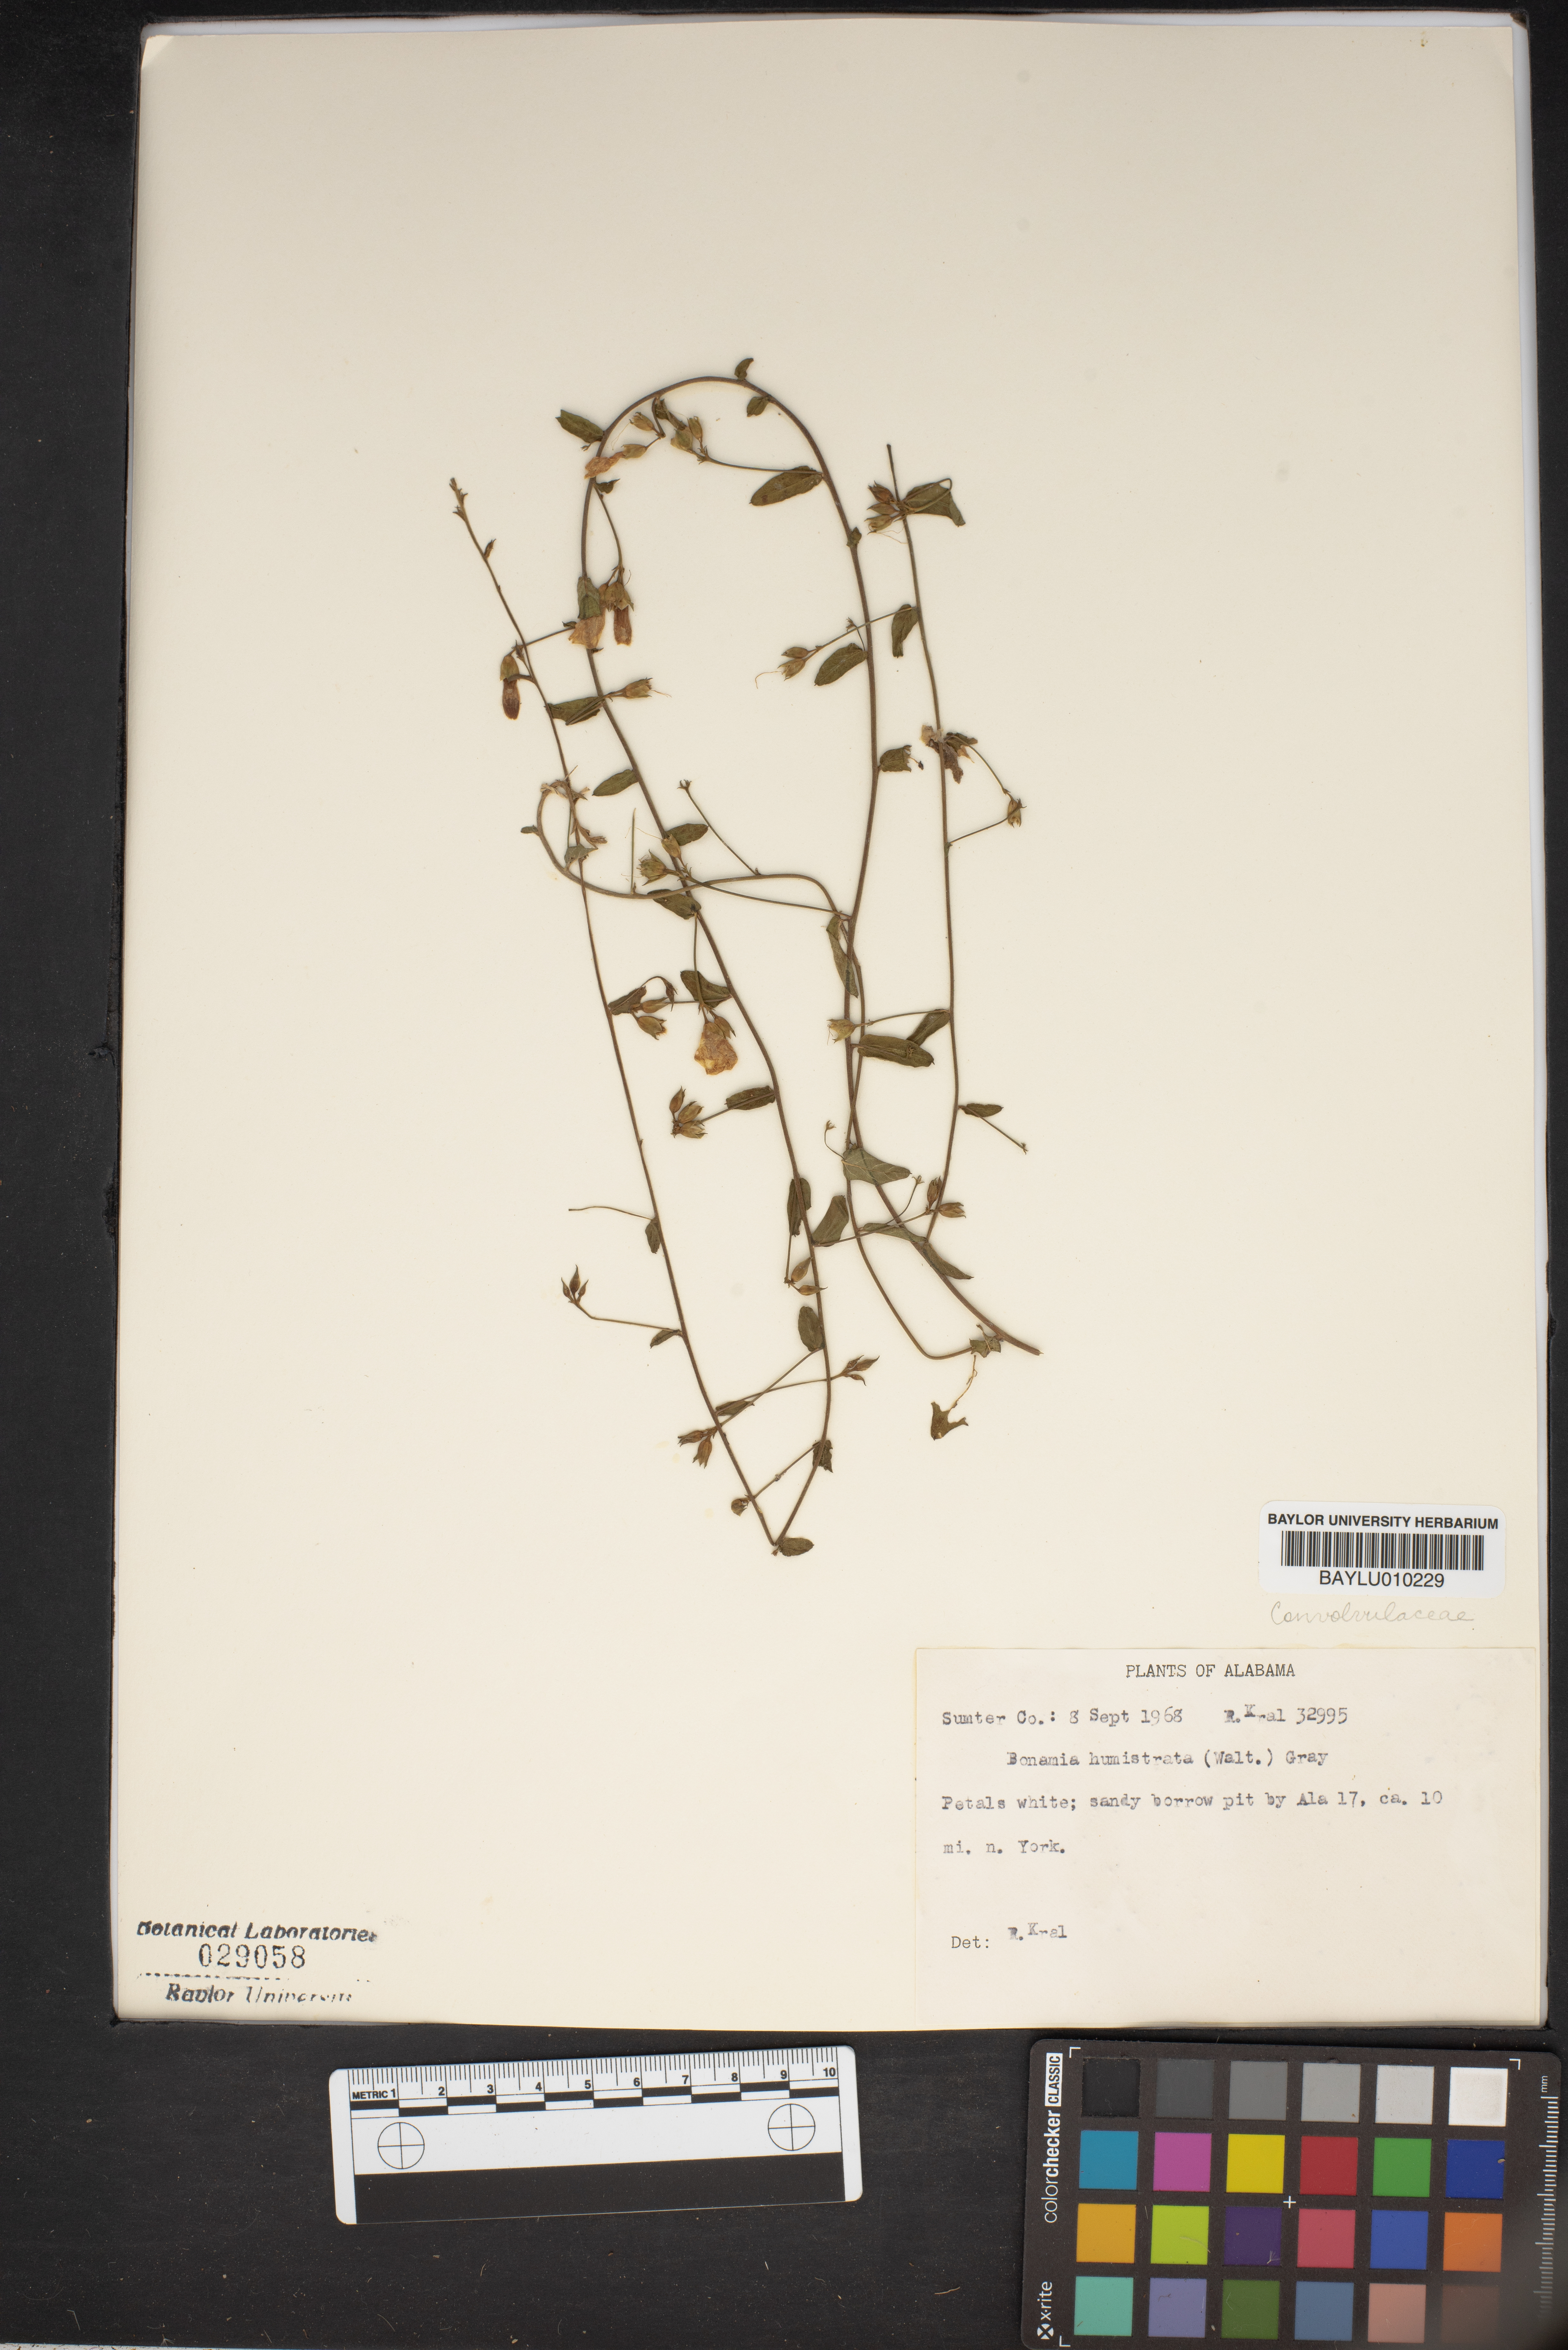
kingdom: Plantae
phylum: Tracheophyta
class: Magnoliopsida
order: Solanales
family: Convolvulaceae
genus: Stylisma
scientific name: Stylisma humistrata
